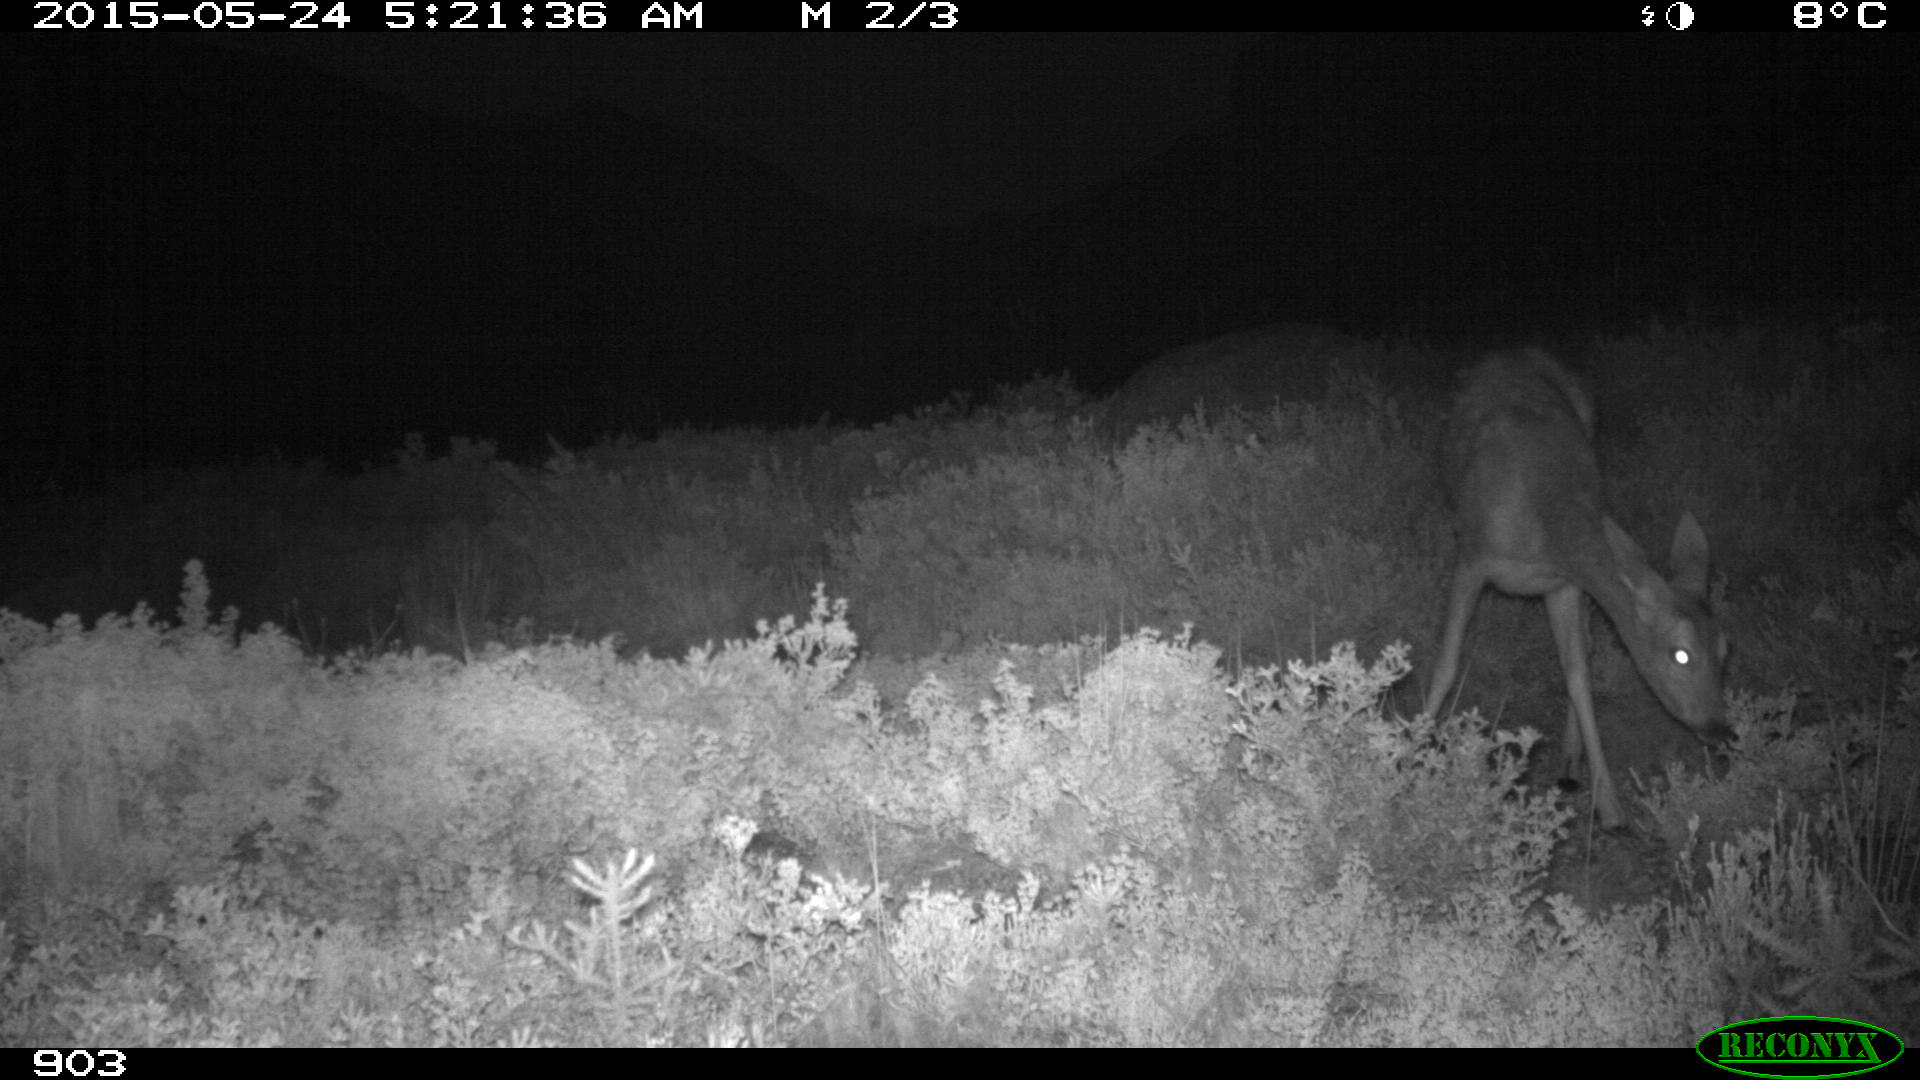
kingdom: Animalia
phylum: Chordata
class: Mammalia
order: Artiodactyla
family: Cervidae
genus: Capreolus
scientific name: Capreolus capreolus
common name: Western roe deer
